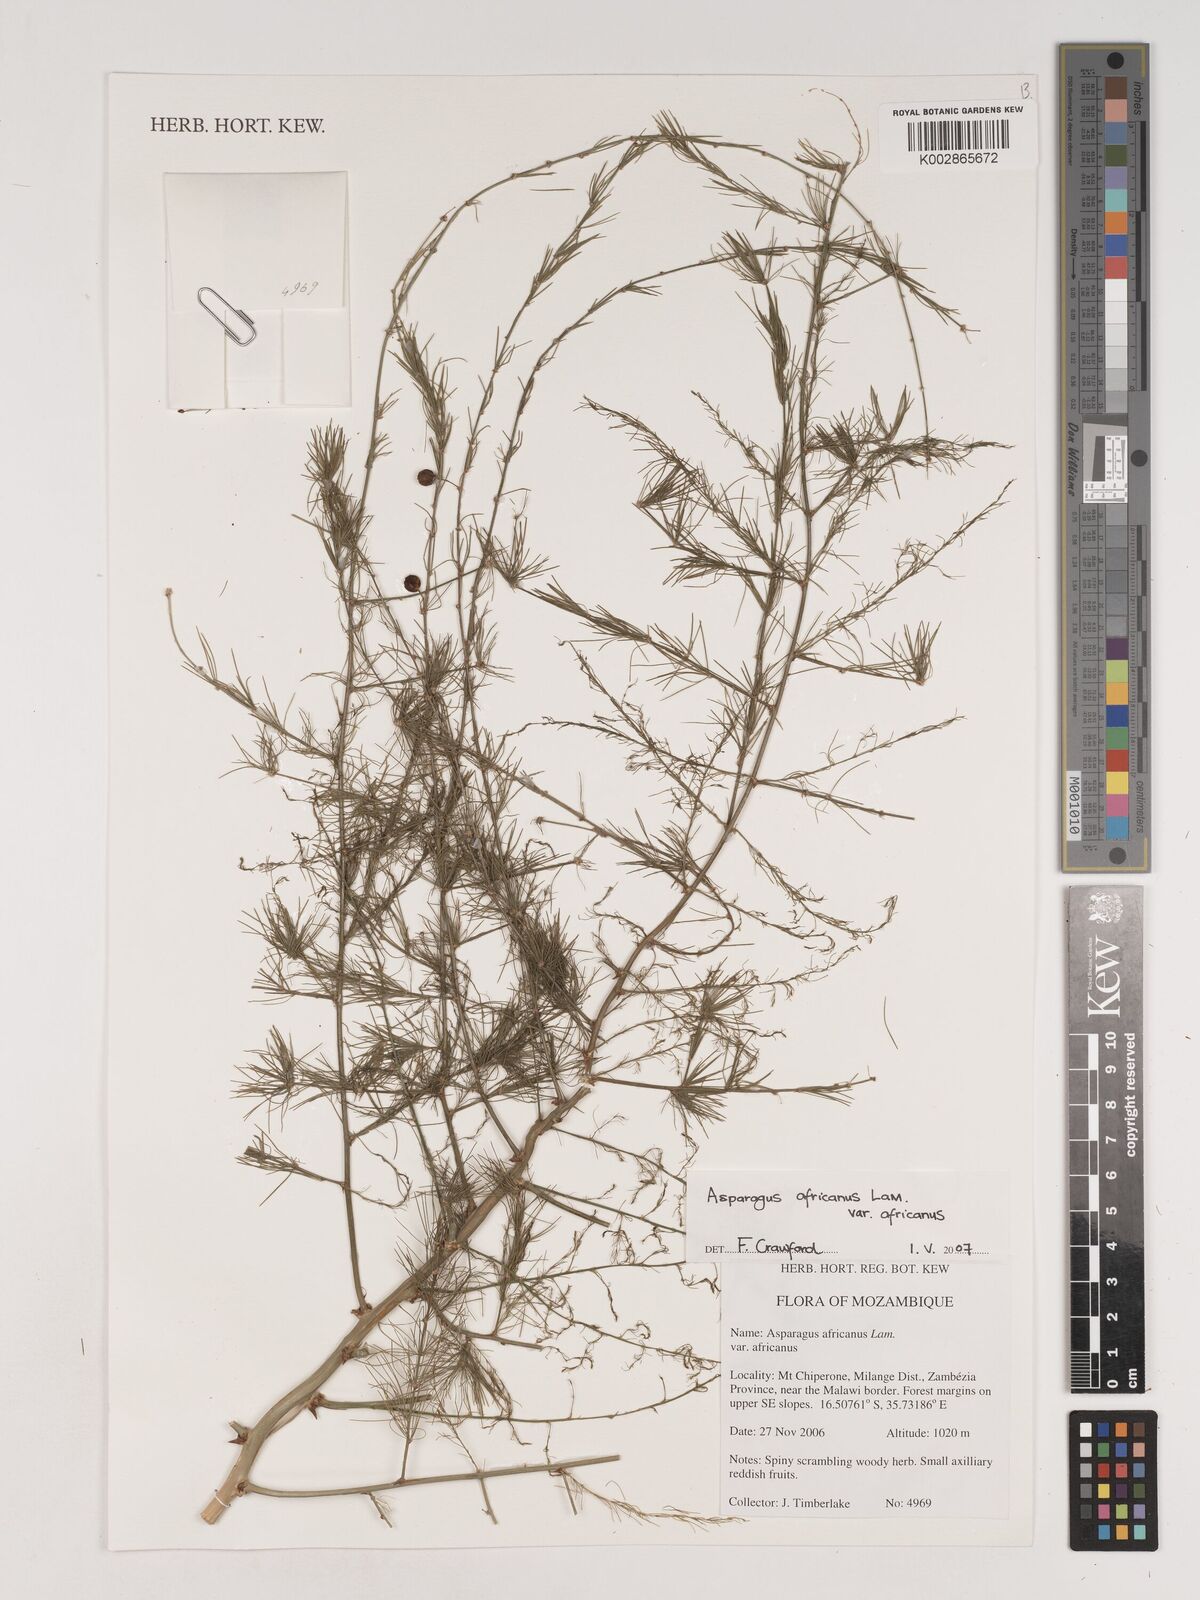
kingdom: Plantae
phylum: Tracheophyta
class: Liliopsida
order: Asparagales
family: Asparagaceae
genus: Asparagus
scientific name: Asparagus africanus
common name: Asparagus-fern
